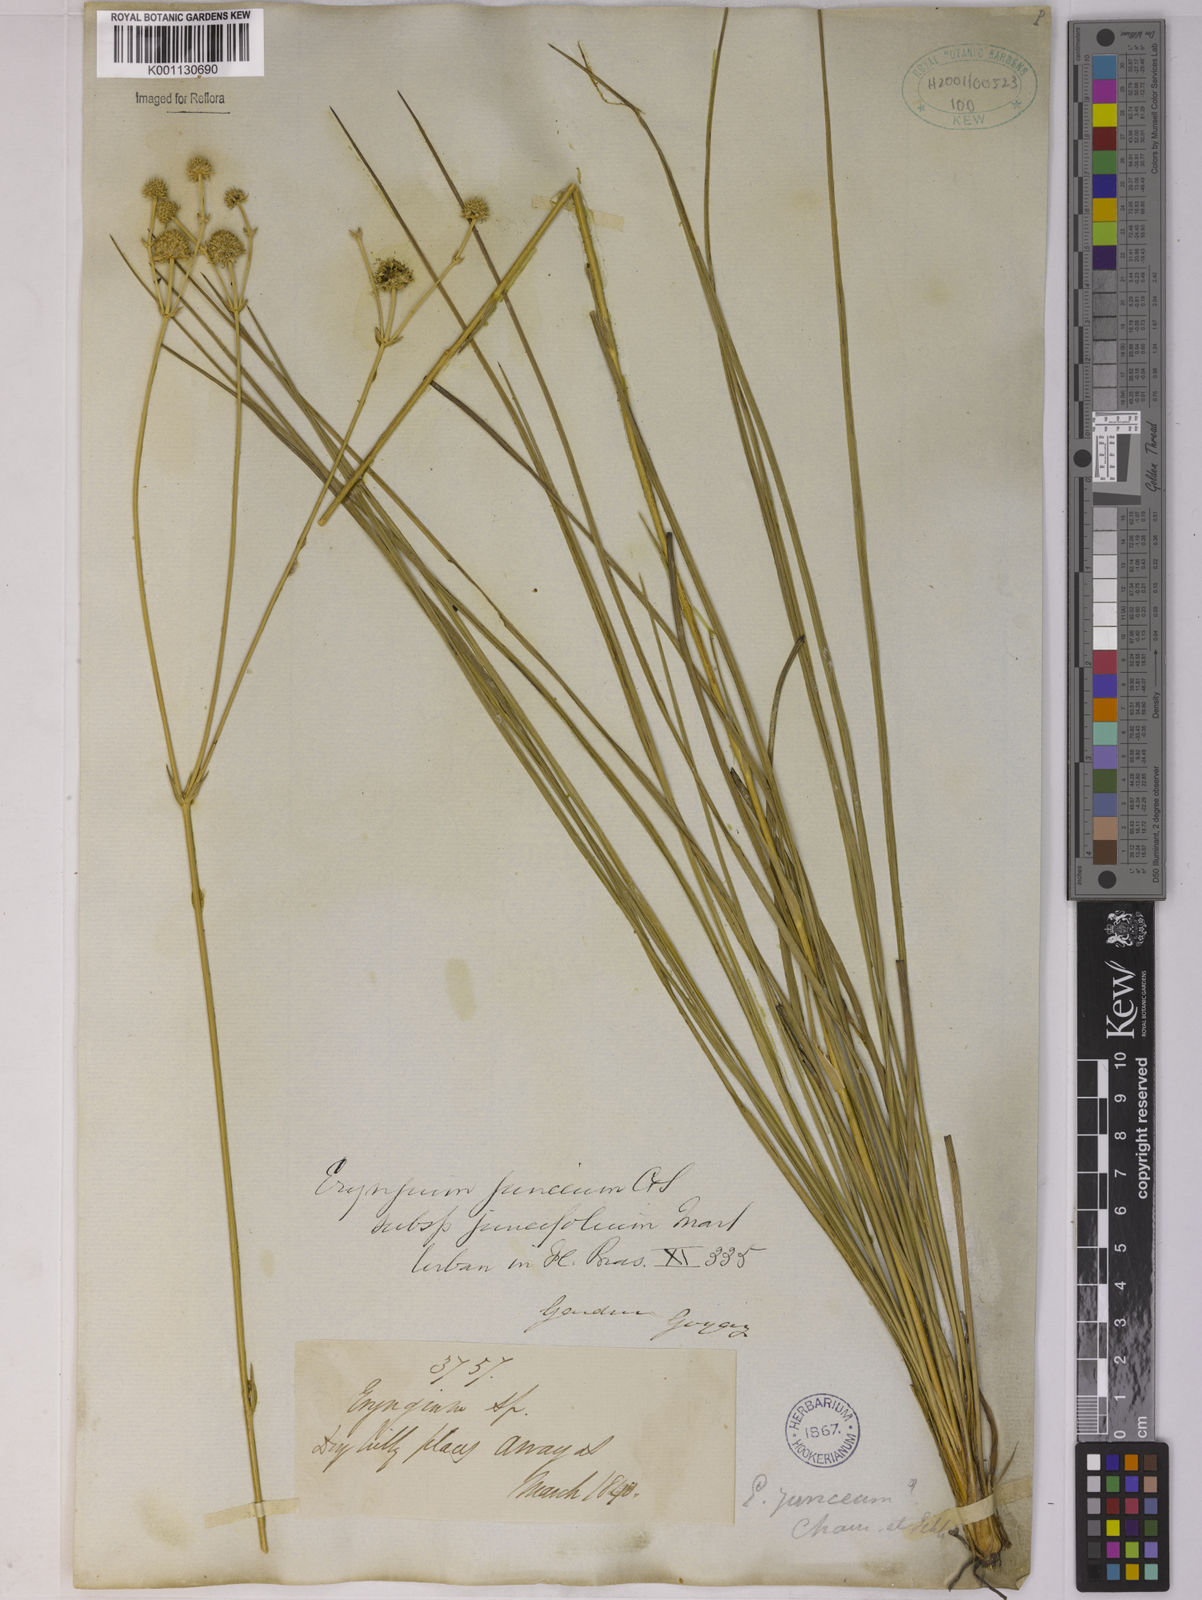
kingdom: Plantae
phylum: Tracheophyta
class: Magnoliopsida
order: Apiales
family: Apiaceae
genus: Eryngium
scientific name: Eryngium juncifolium
